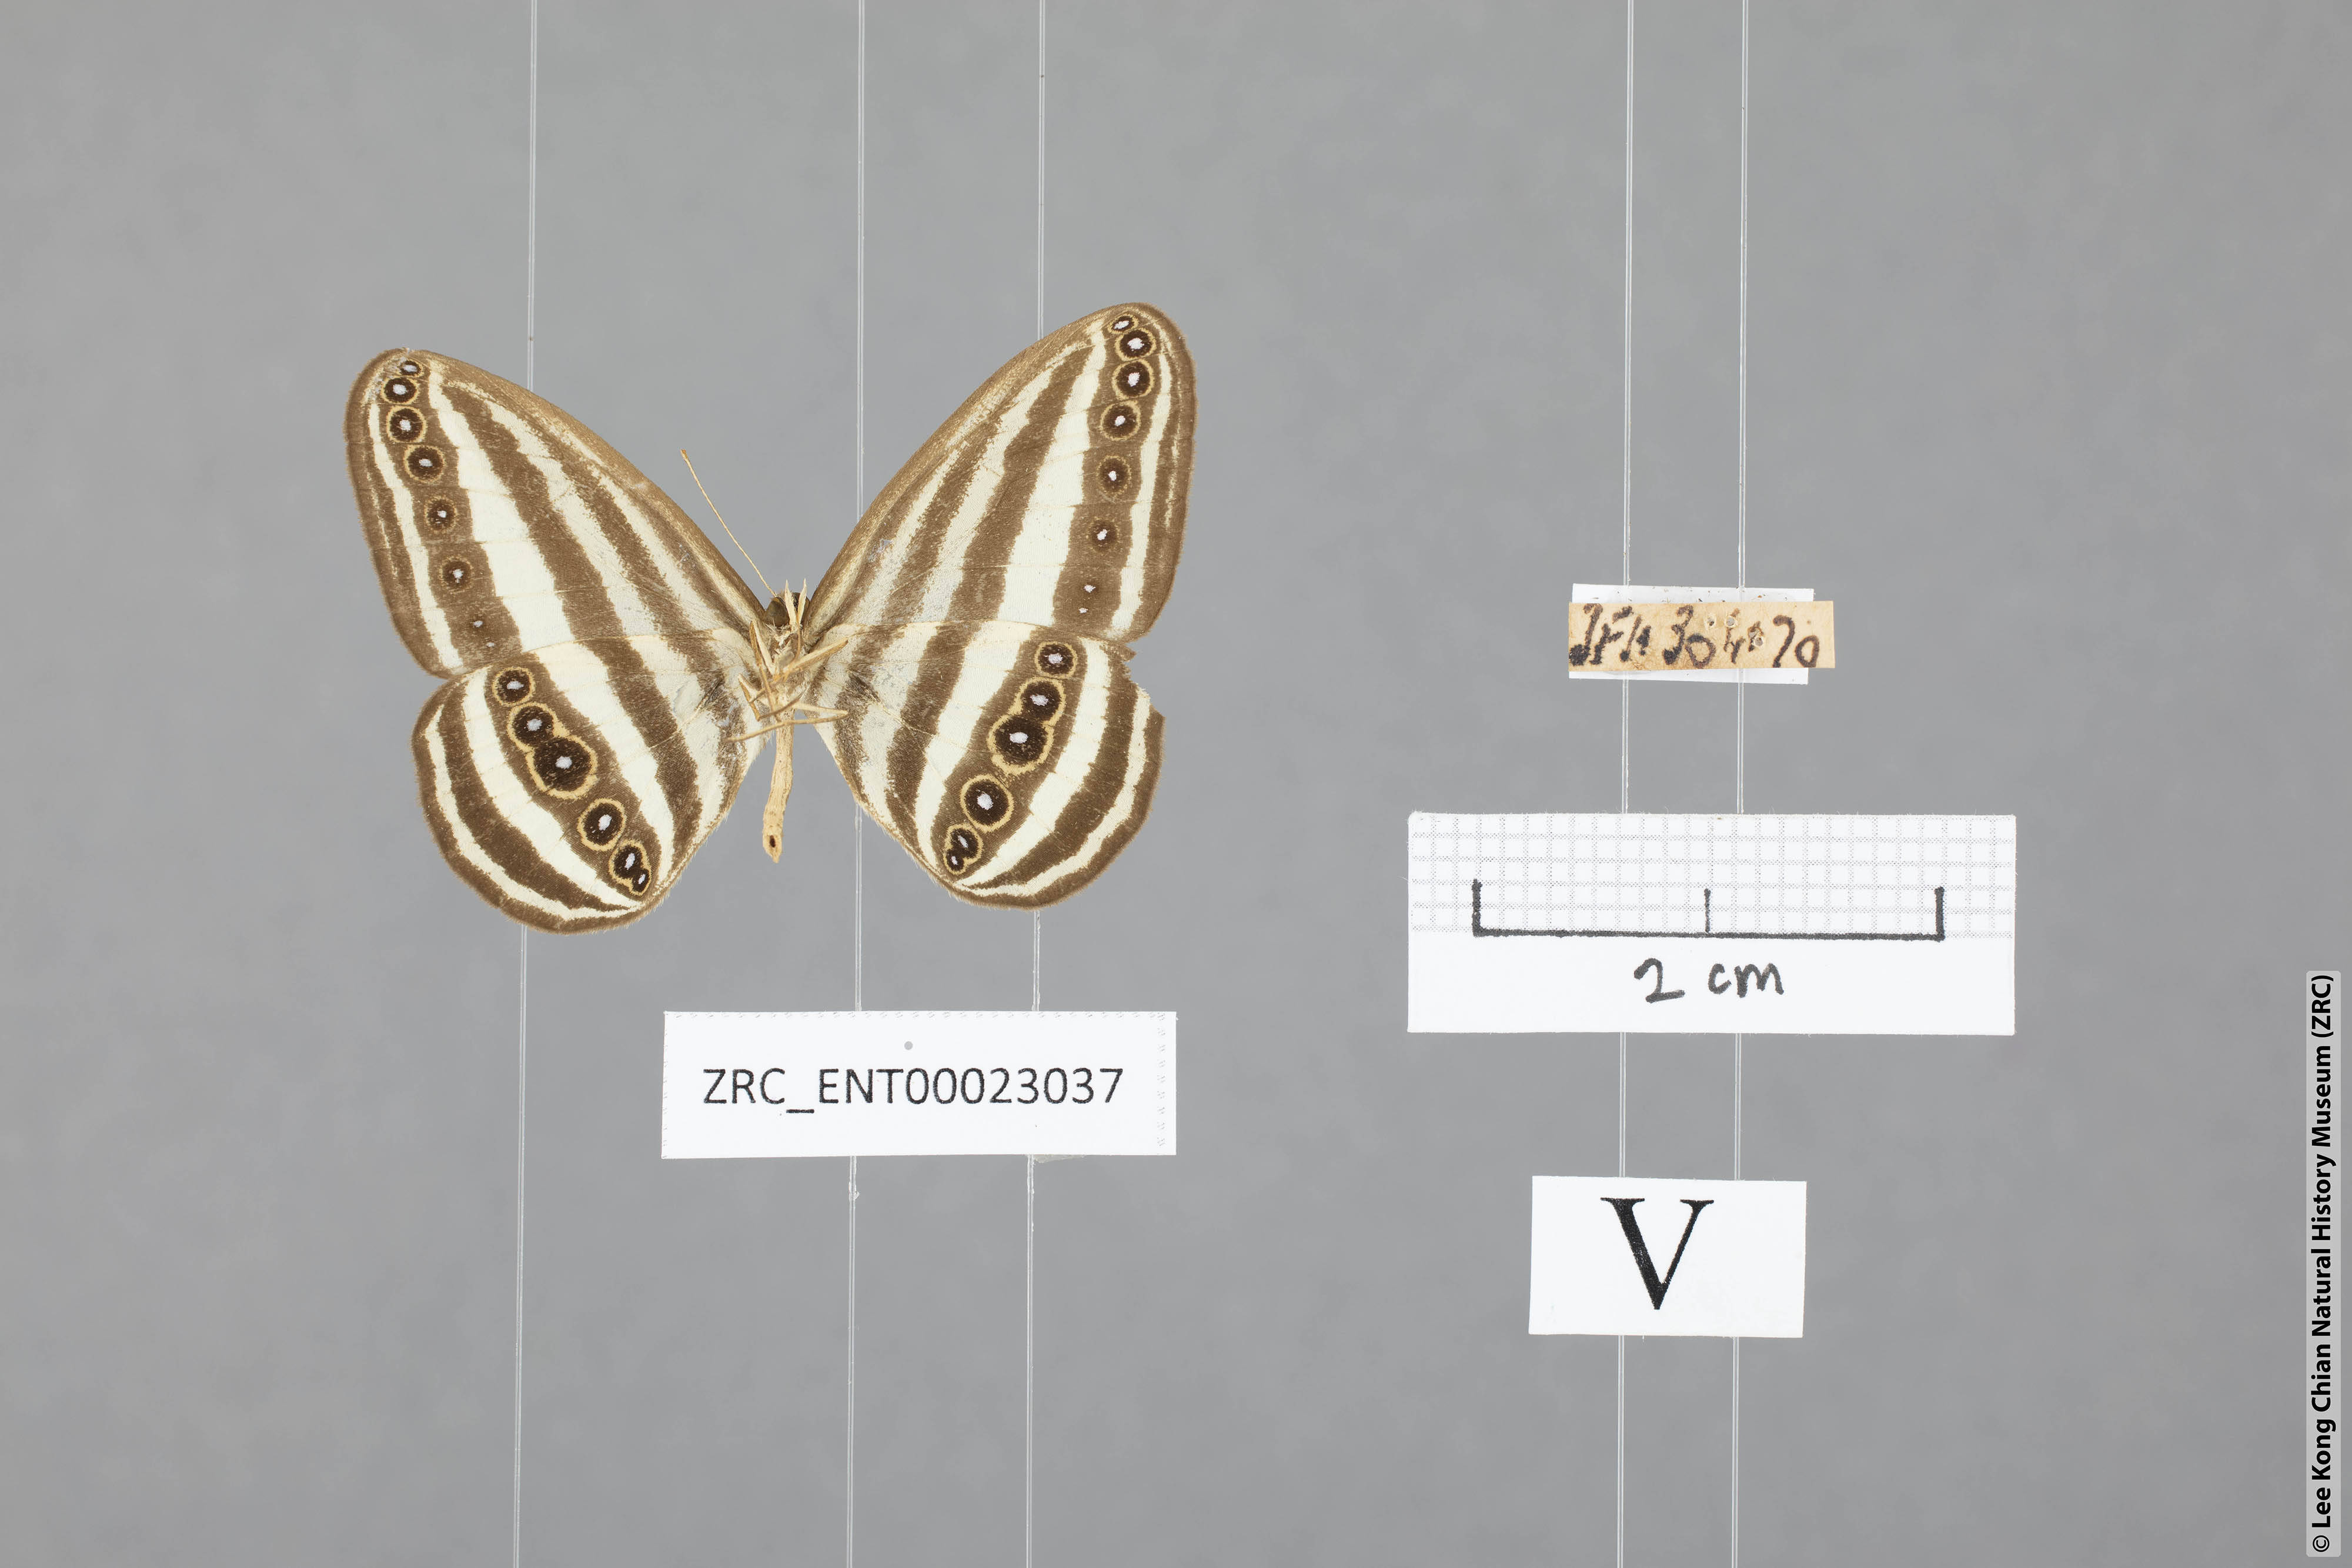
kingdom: Animalia
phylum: Arthropoda
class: Insecta
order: Lepidoptera
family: Nymphalidae
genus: Ragadia
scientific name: Ragadia crisilda
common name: White-striped ringlet
